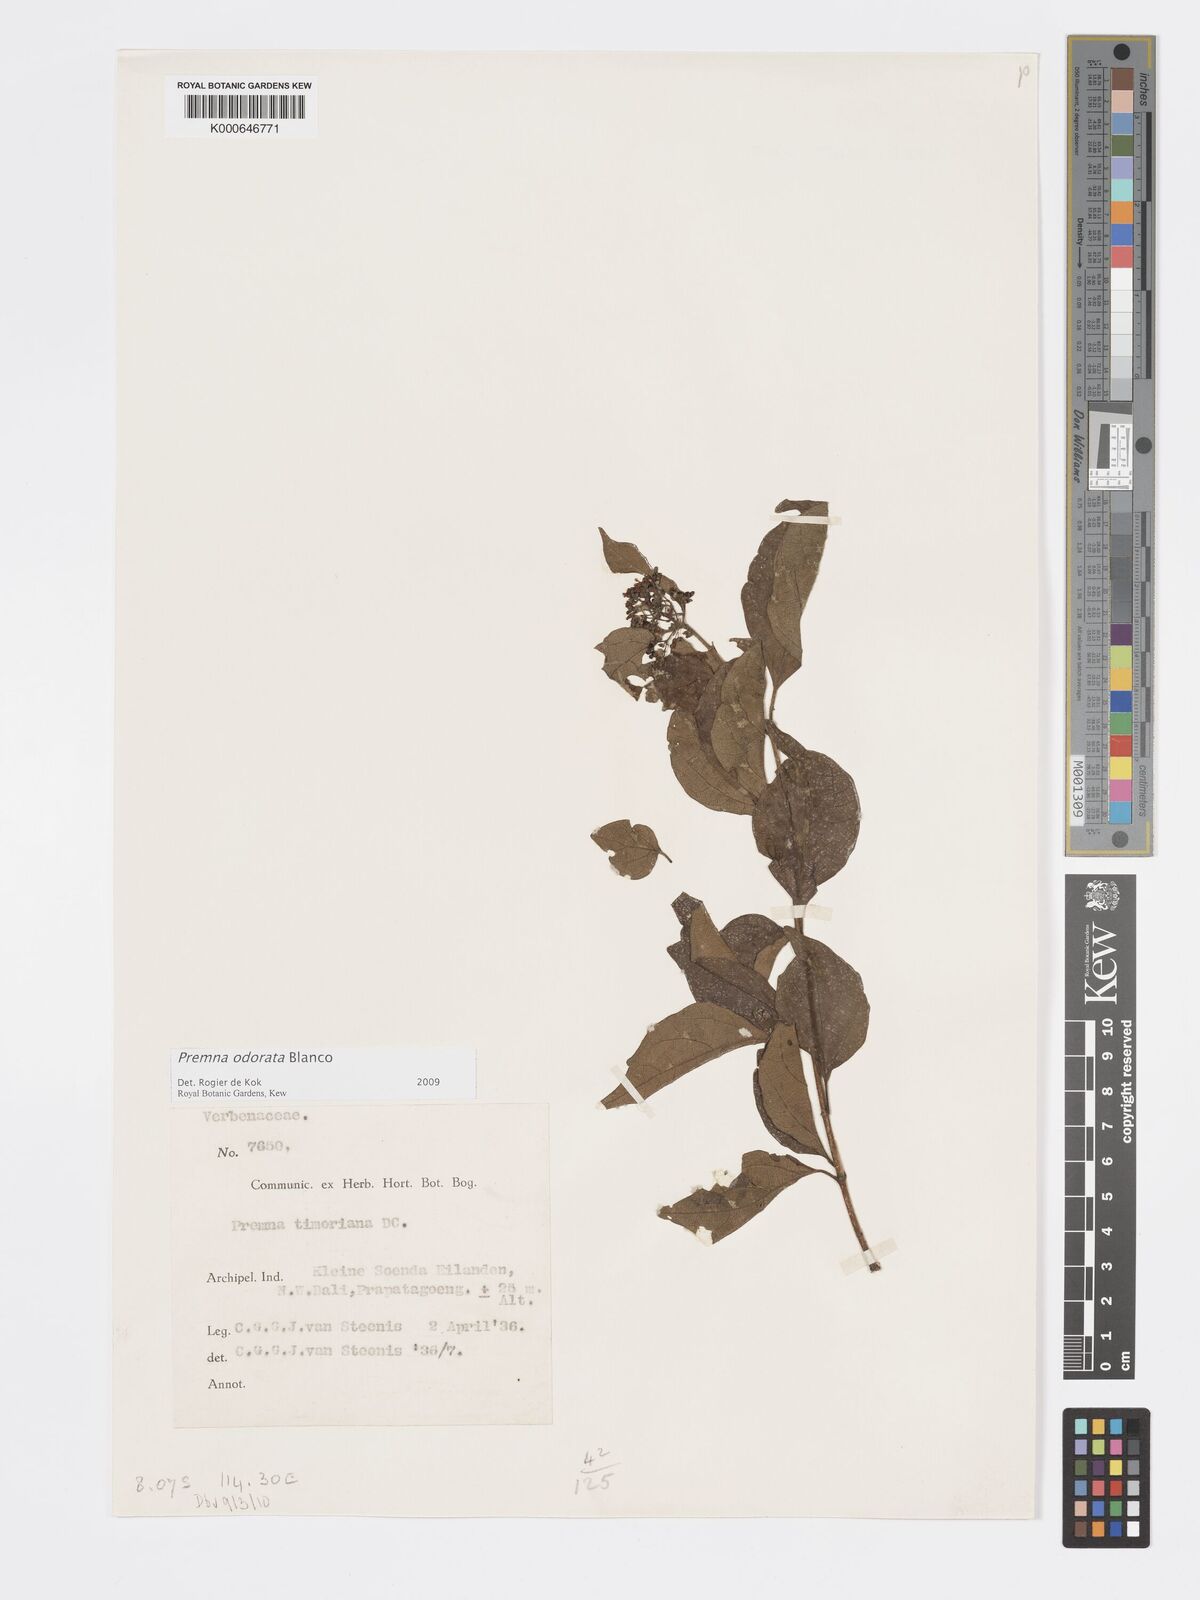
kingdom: Plantae
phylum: Tracheophyta
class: Magnoliopsida
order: Lamiales
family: Lamiaceae
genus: Premna
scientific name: Premna odorata
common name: Fragrant premna
